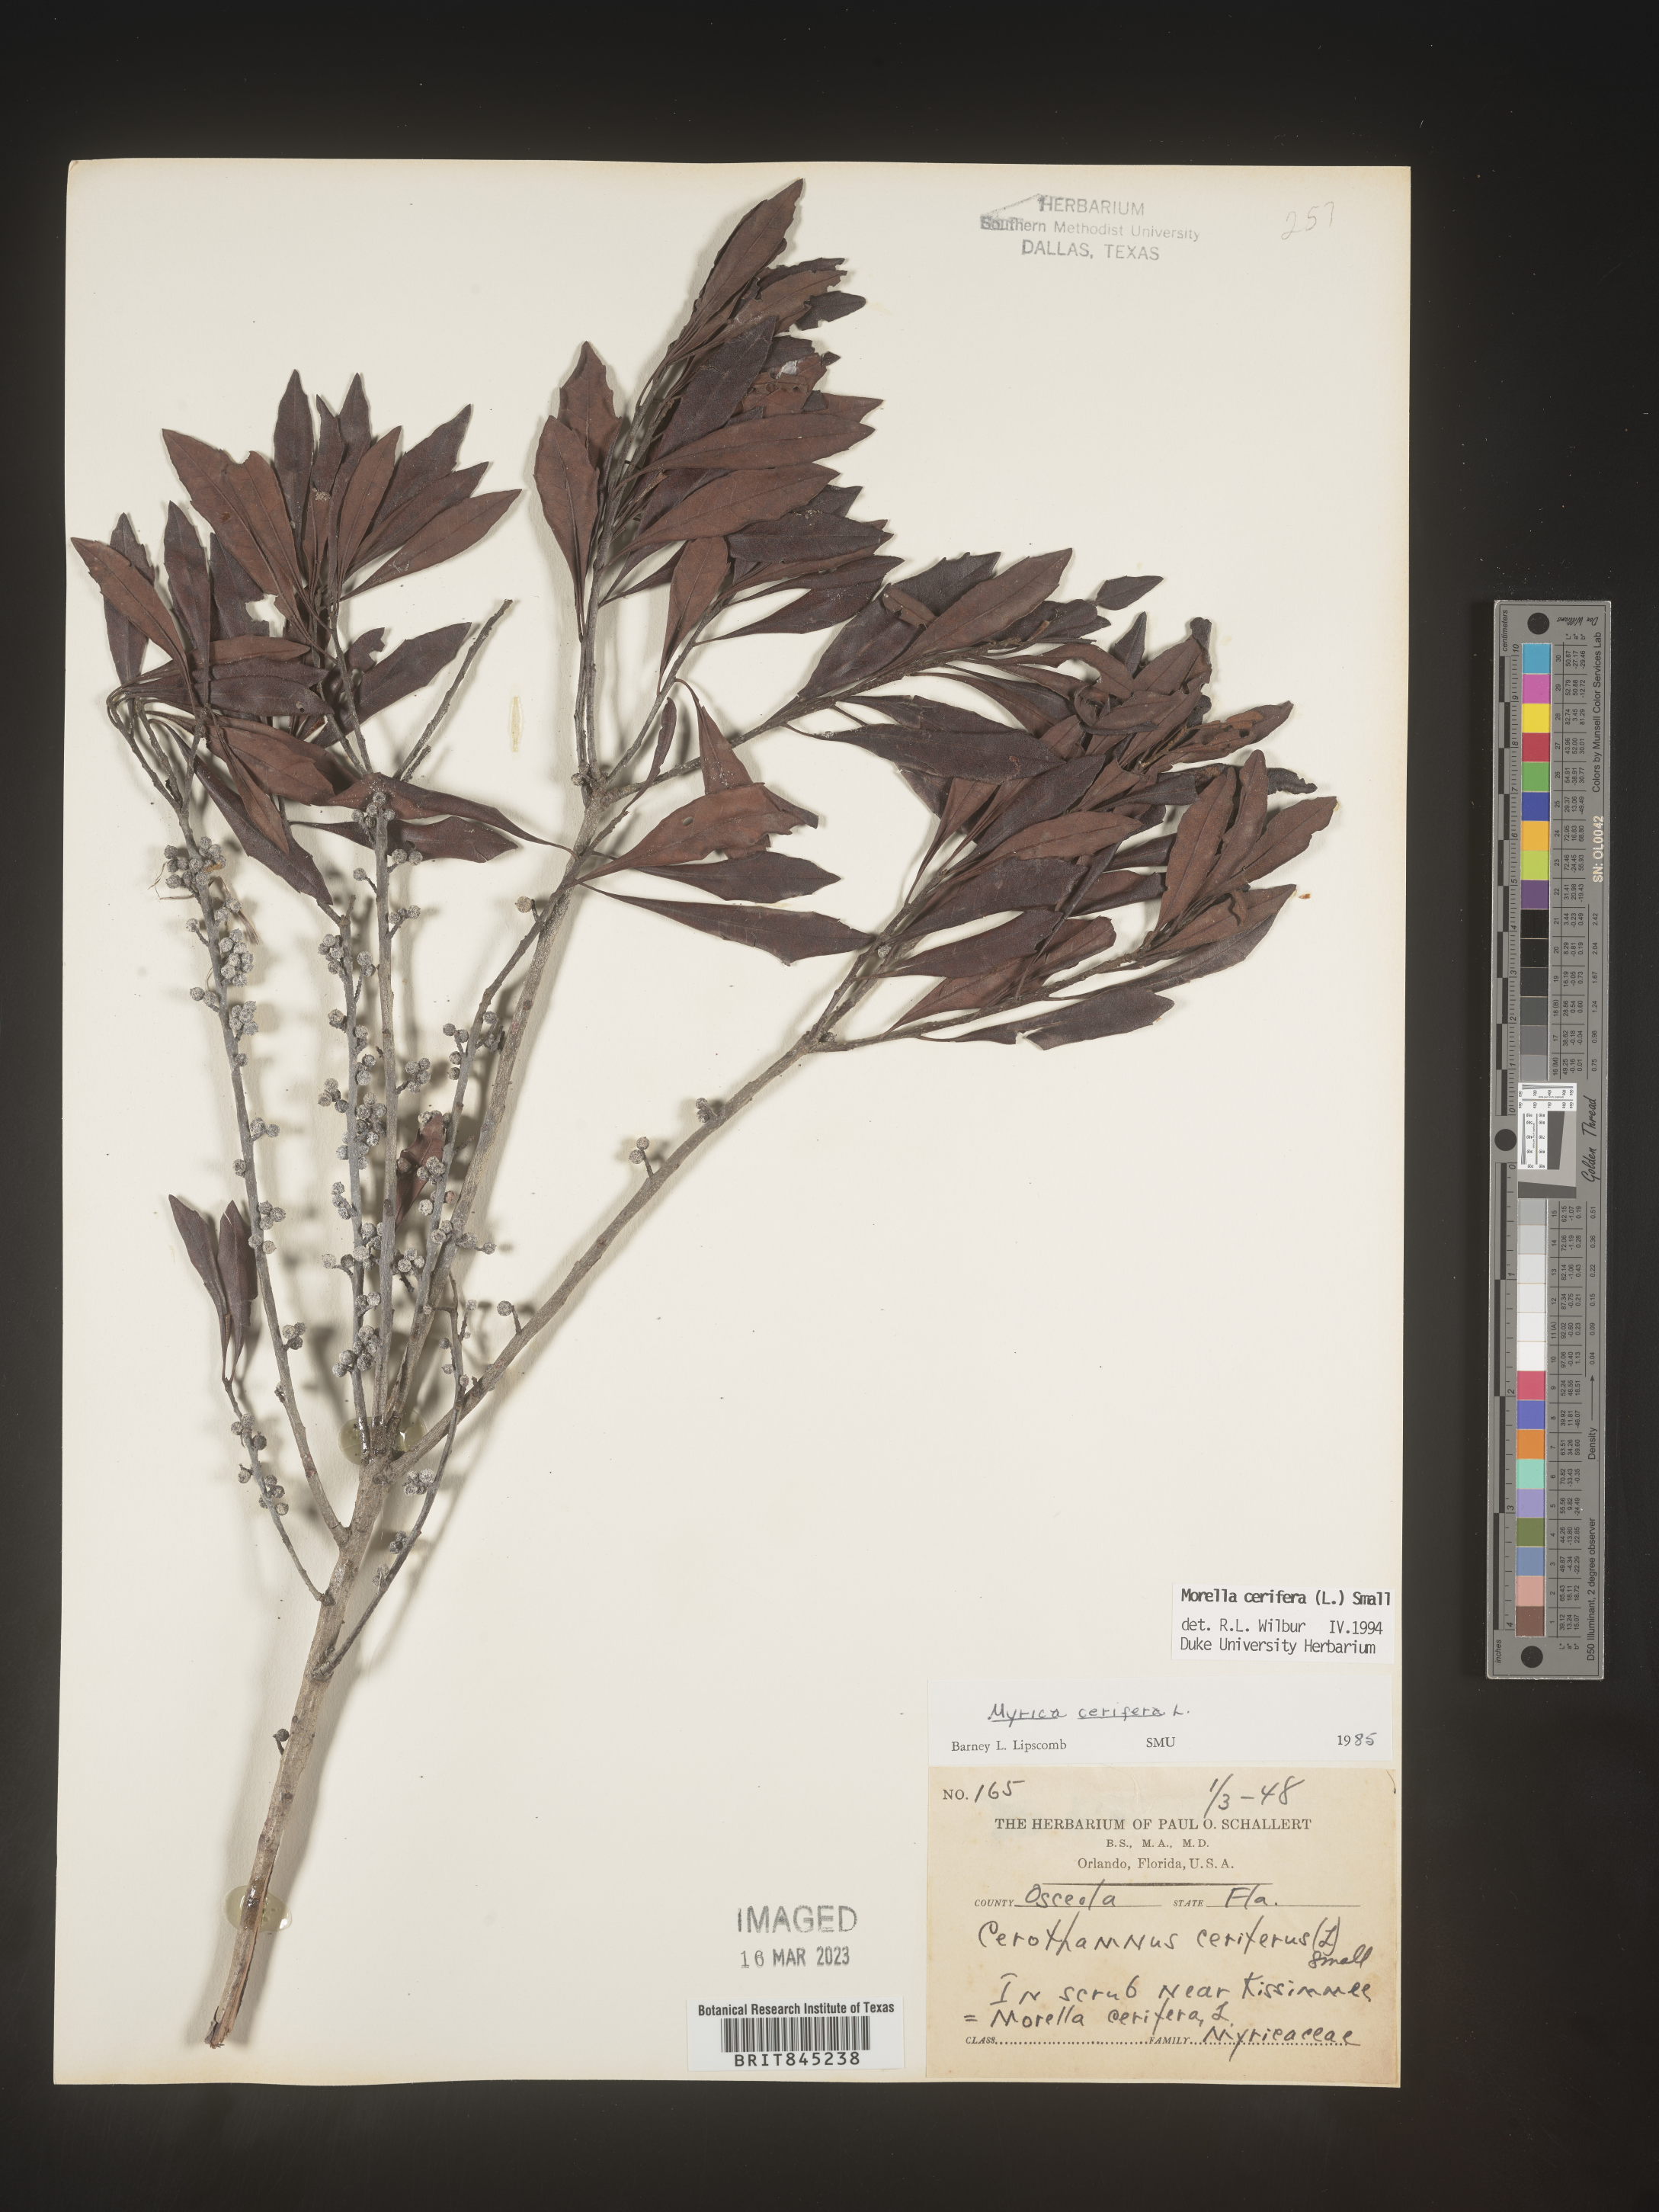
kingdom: Plantae
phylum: Tracheophyta
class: Magnoliopsida
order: Fagales
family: Myricaceae
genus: Morella
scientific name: Morella cerifera
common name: Wax myrtle
